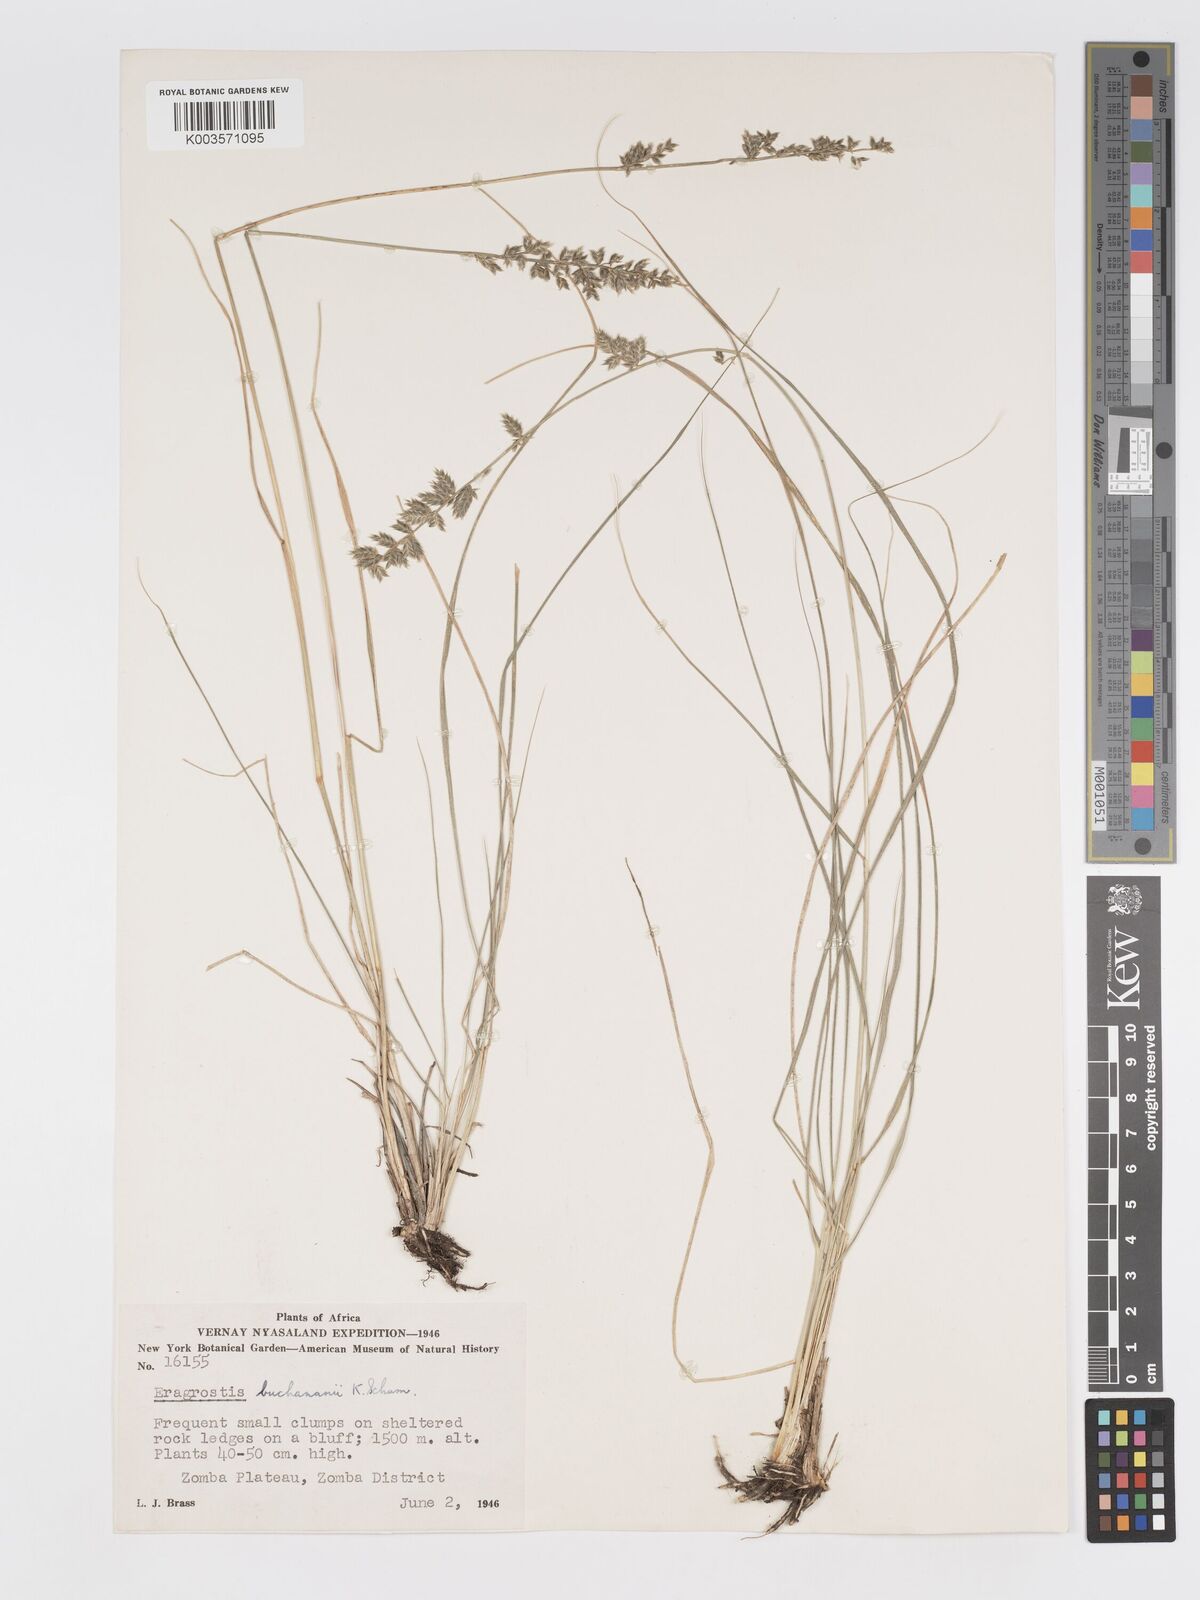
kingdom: Plantae
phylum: Tracheophyta
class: Liliopsida
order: Poales
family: Poaceae
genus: Eragrostis
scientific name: Eragrostis nindensis
